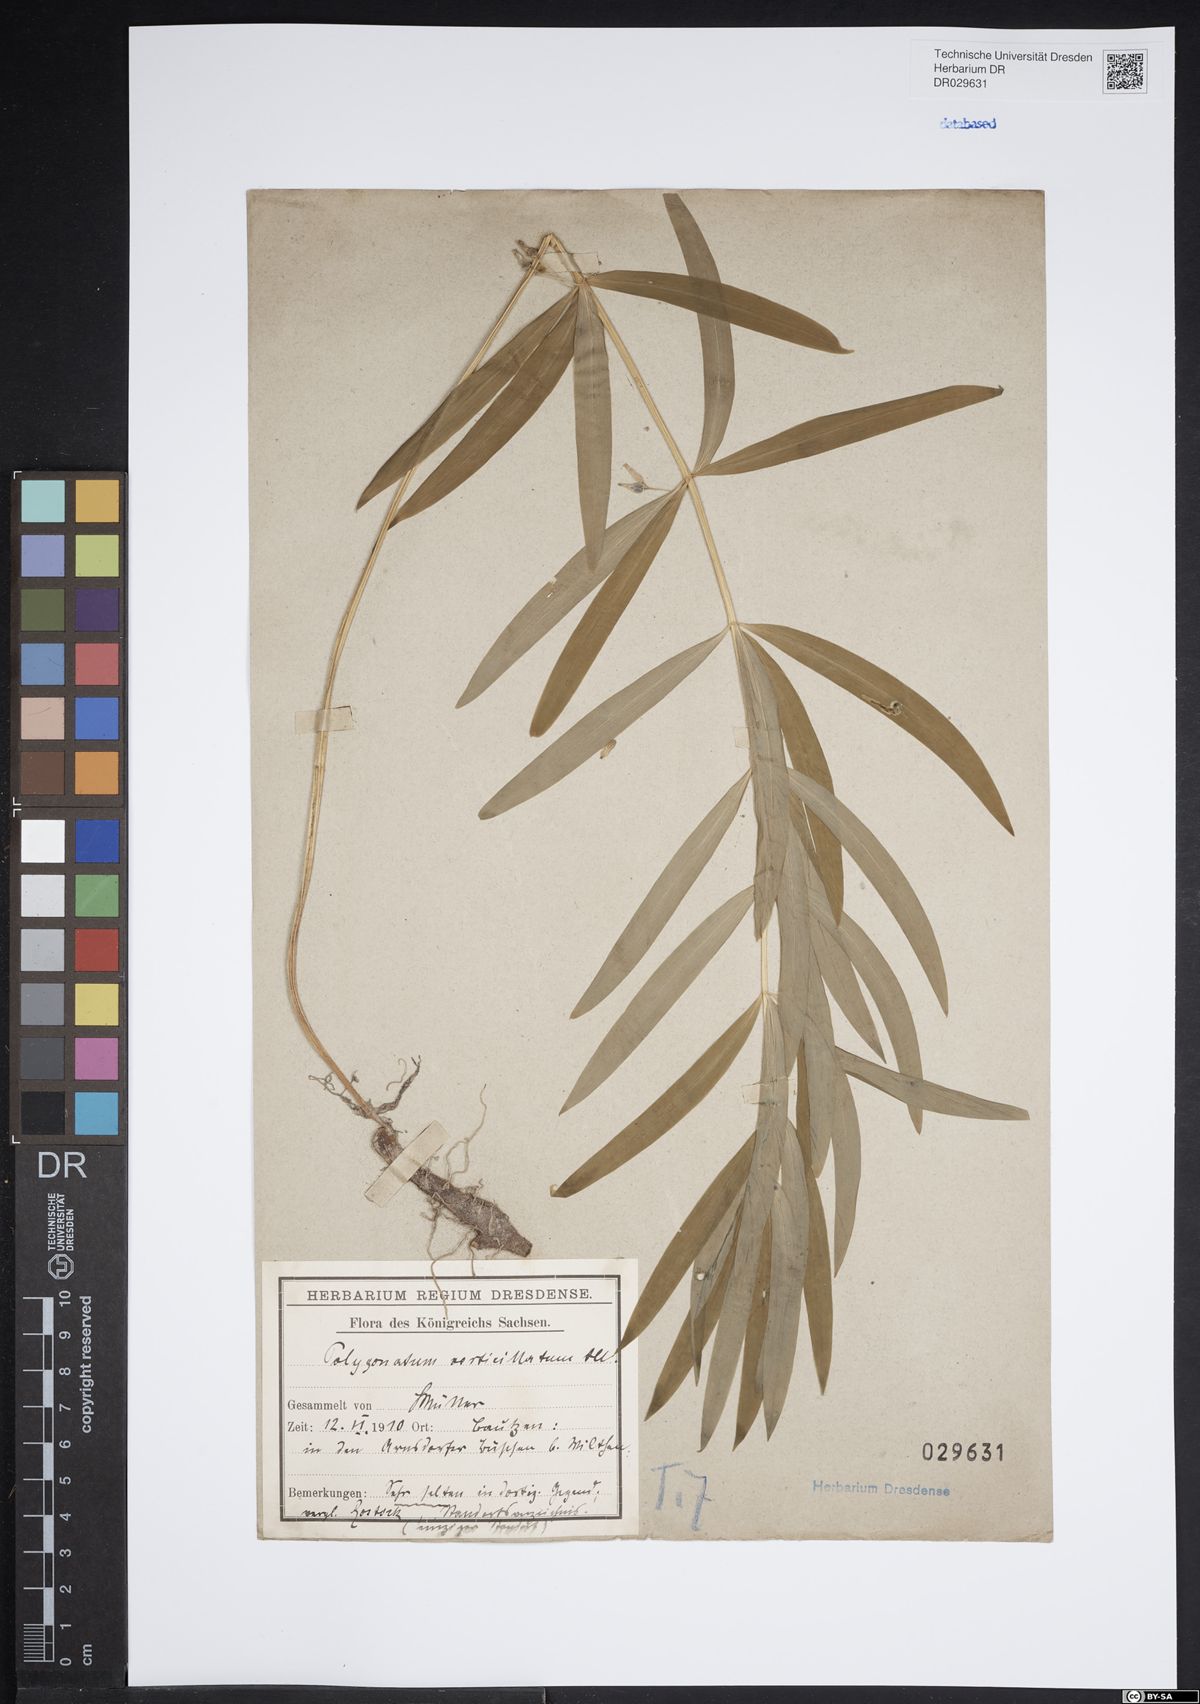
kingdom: Plantae
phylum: Tracheophyta
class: Liliopsida
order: Asparagales
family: Asparagaceae
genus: Polygonatum
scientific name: Polygonatum verticillatum
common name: Whorled solomon's-seal
